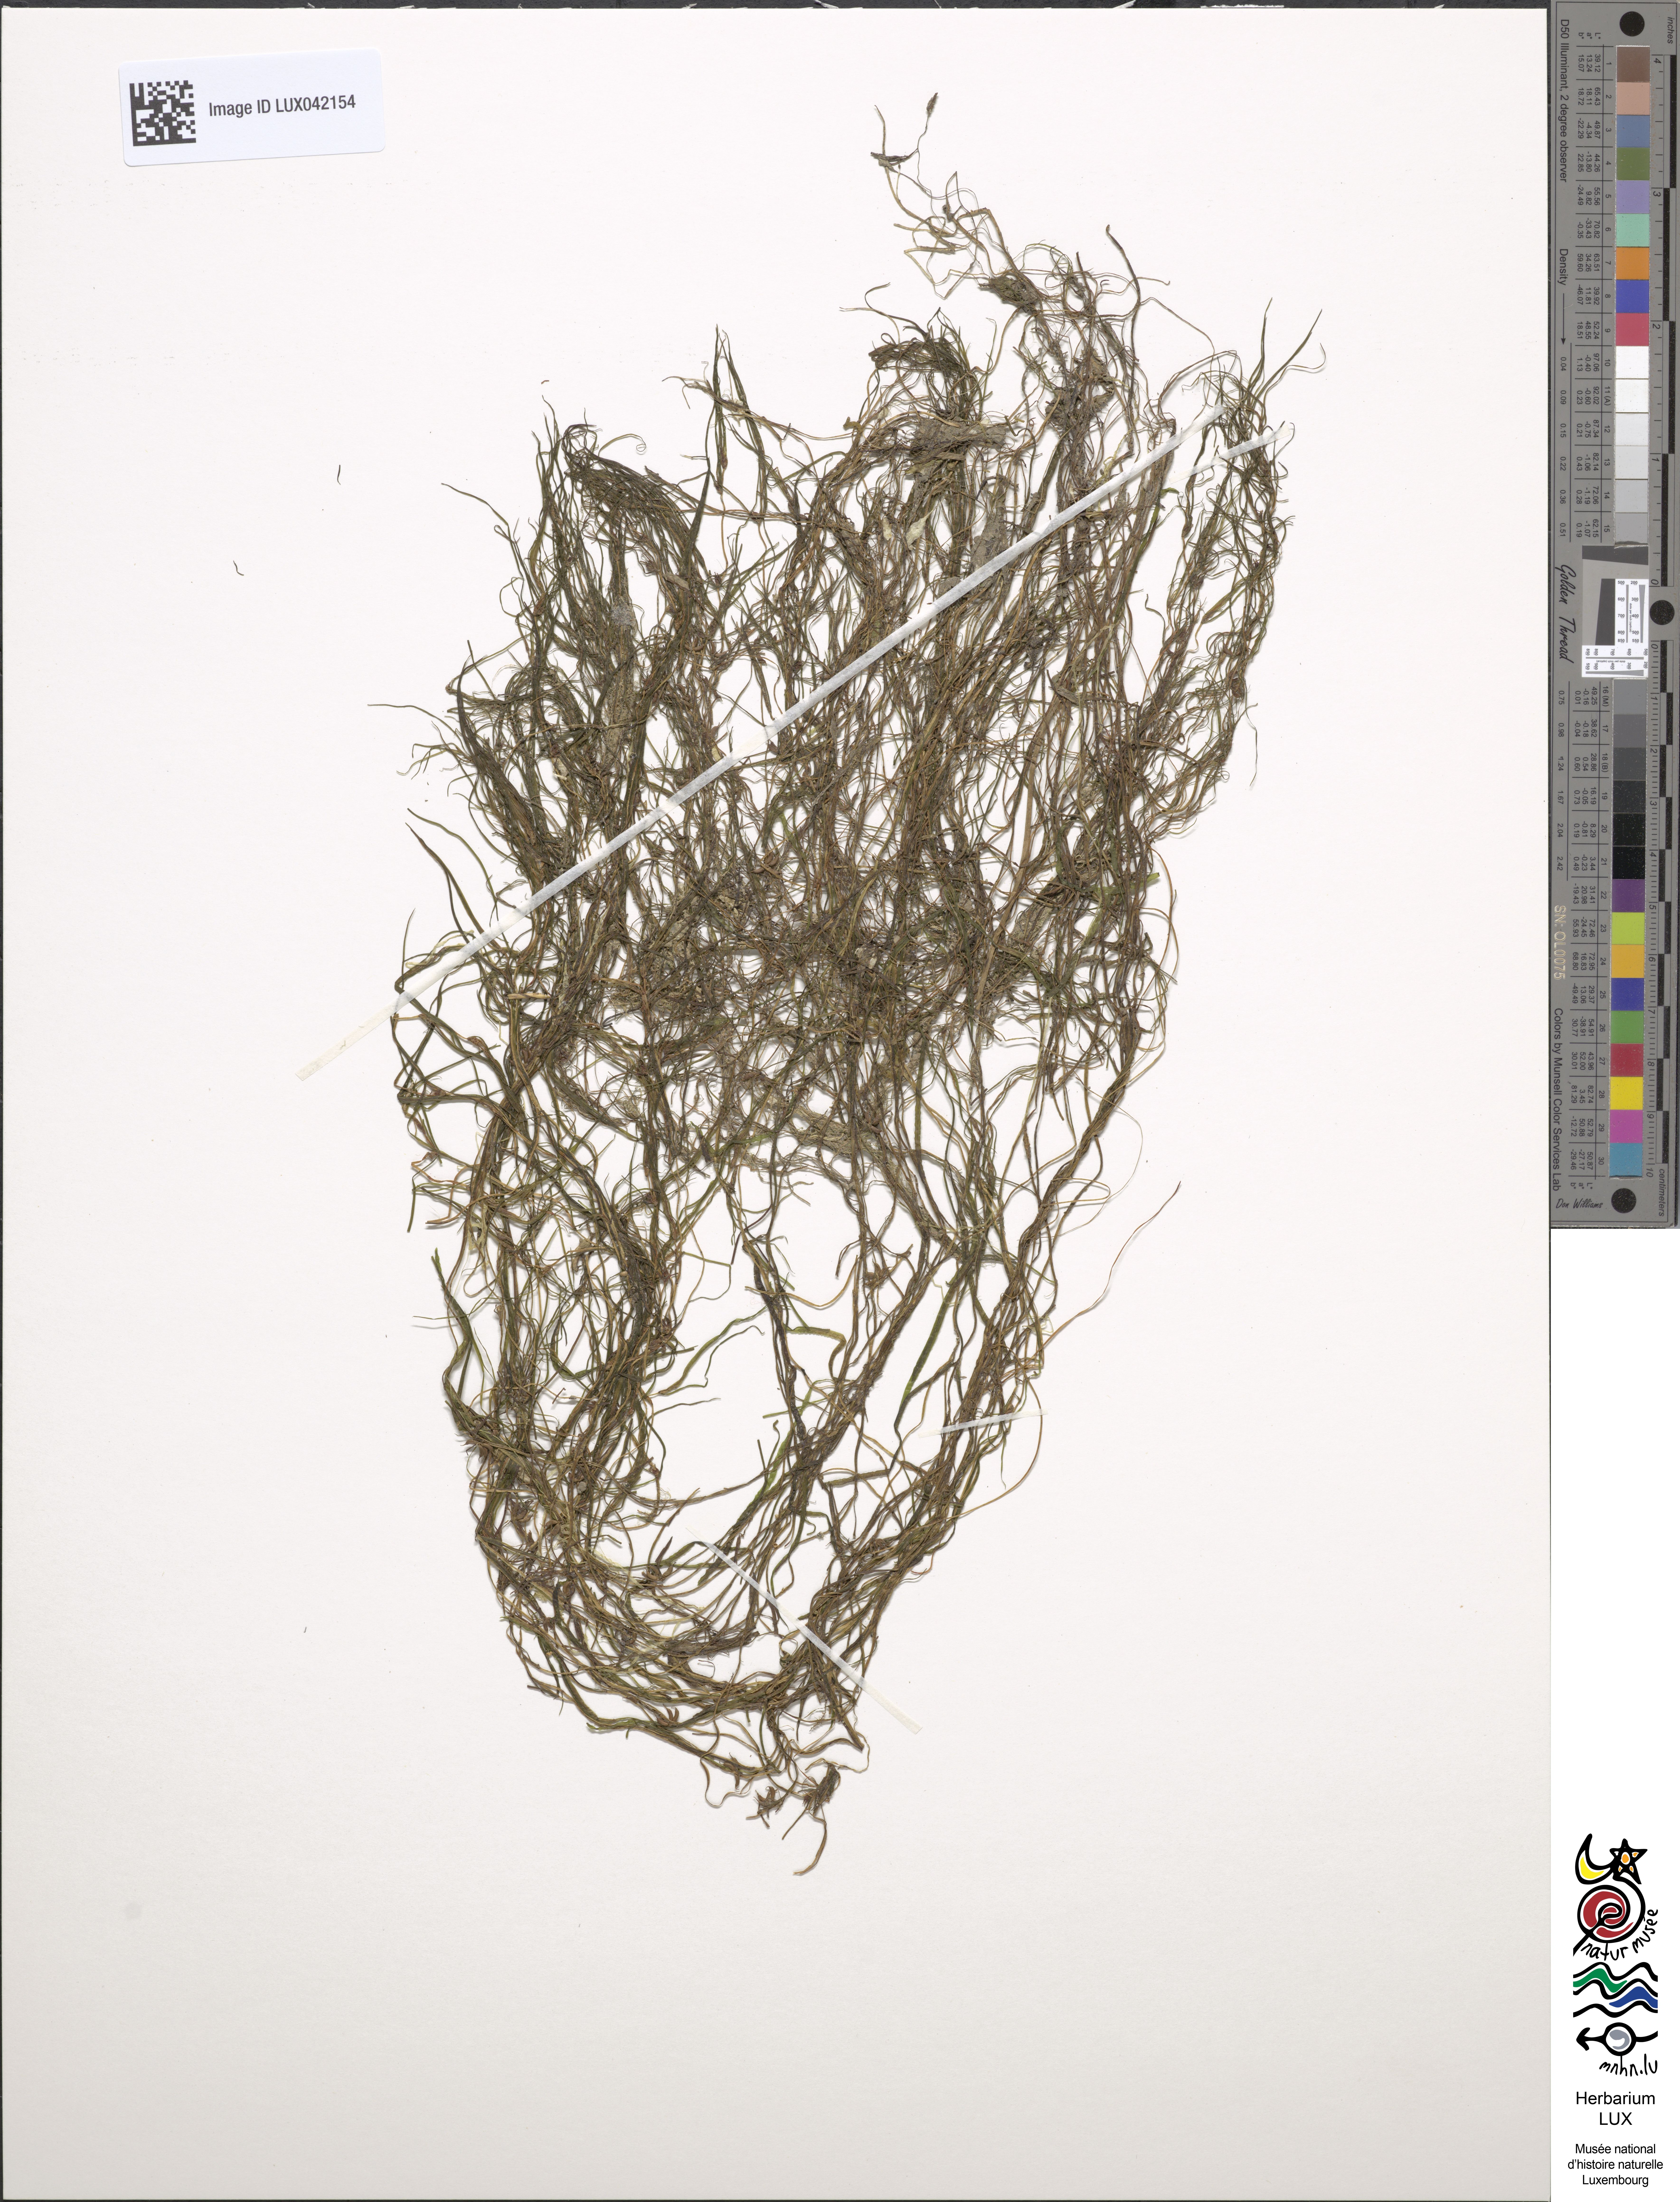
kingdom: Plantae
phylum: Tracheophyta
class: Liliopsida
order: Alismatales
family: Potamogetonaceae
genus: Zannichellia
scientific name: Zannichellia palustris
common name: Horned pondweed
